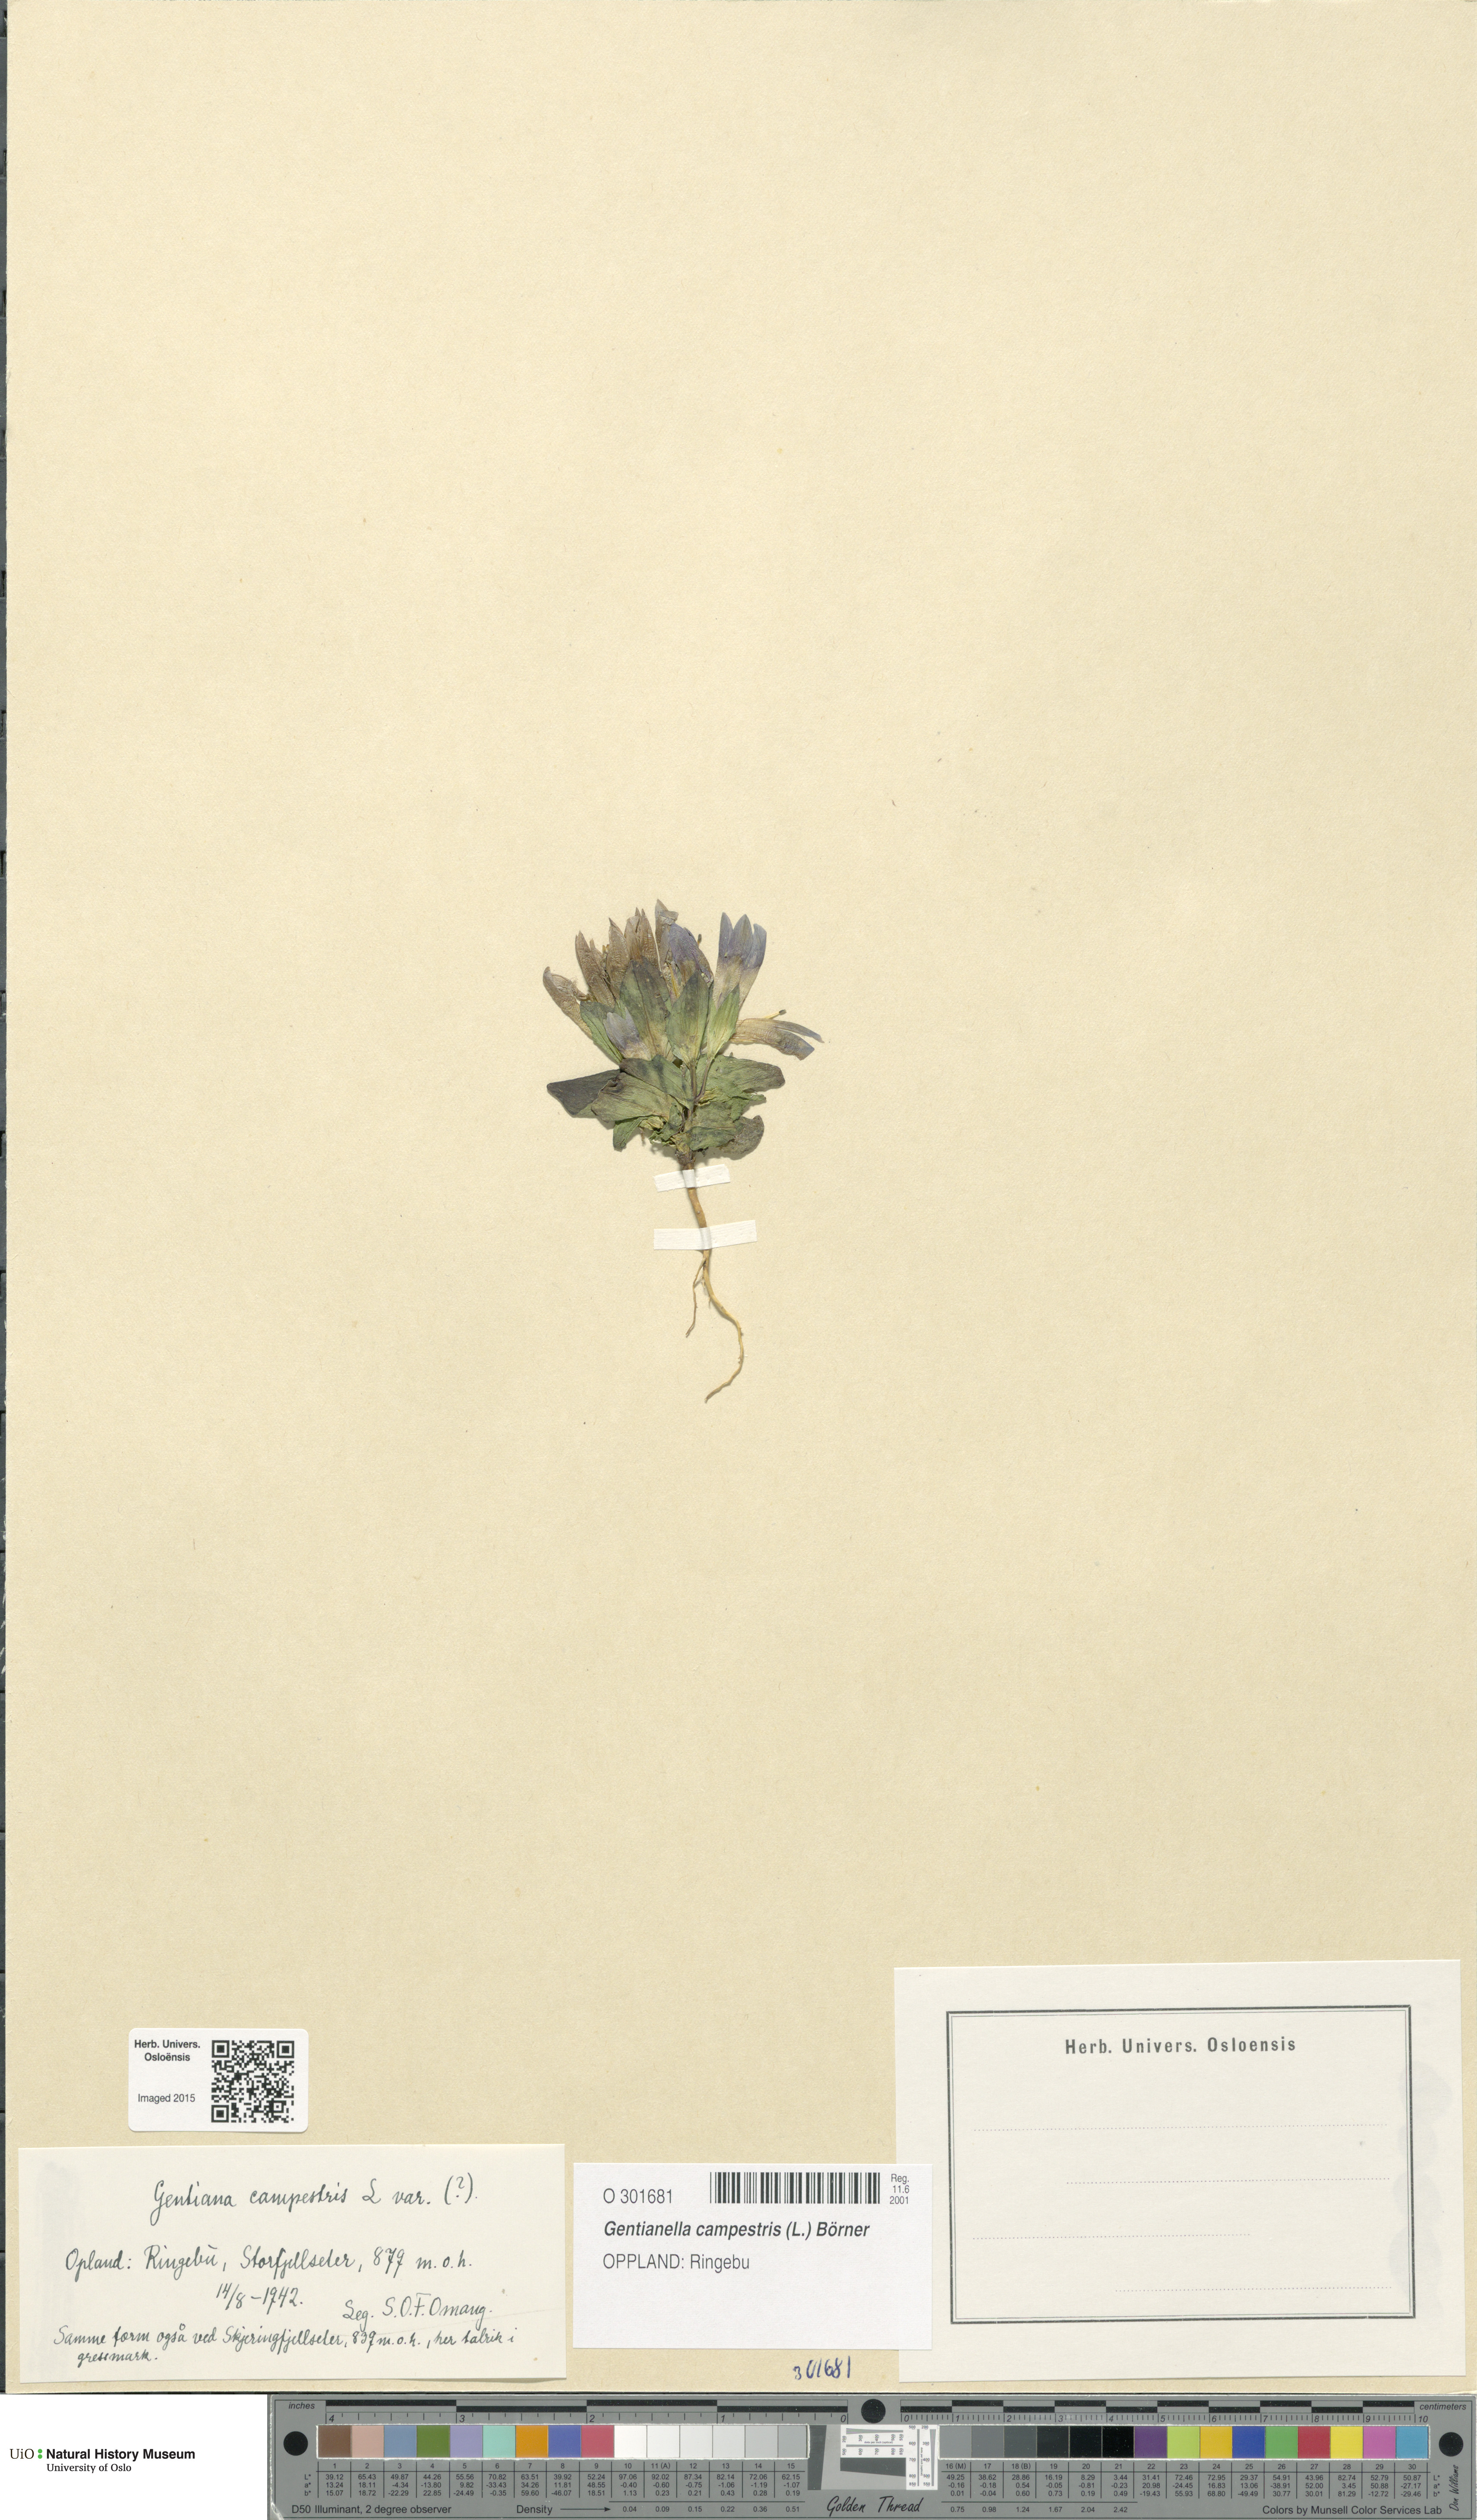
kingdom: Plantae
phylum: Tracheophyta
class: Magnoliopsida
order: Gentianales
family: Gentianaceae
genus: Gentianella
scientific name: Gentianella campestris
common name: Field gentian
